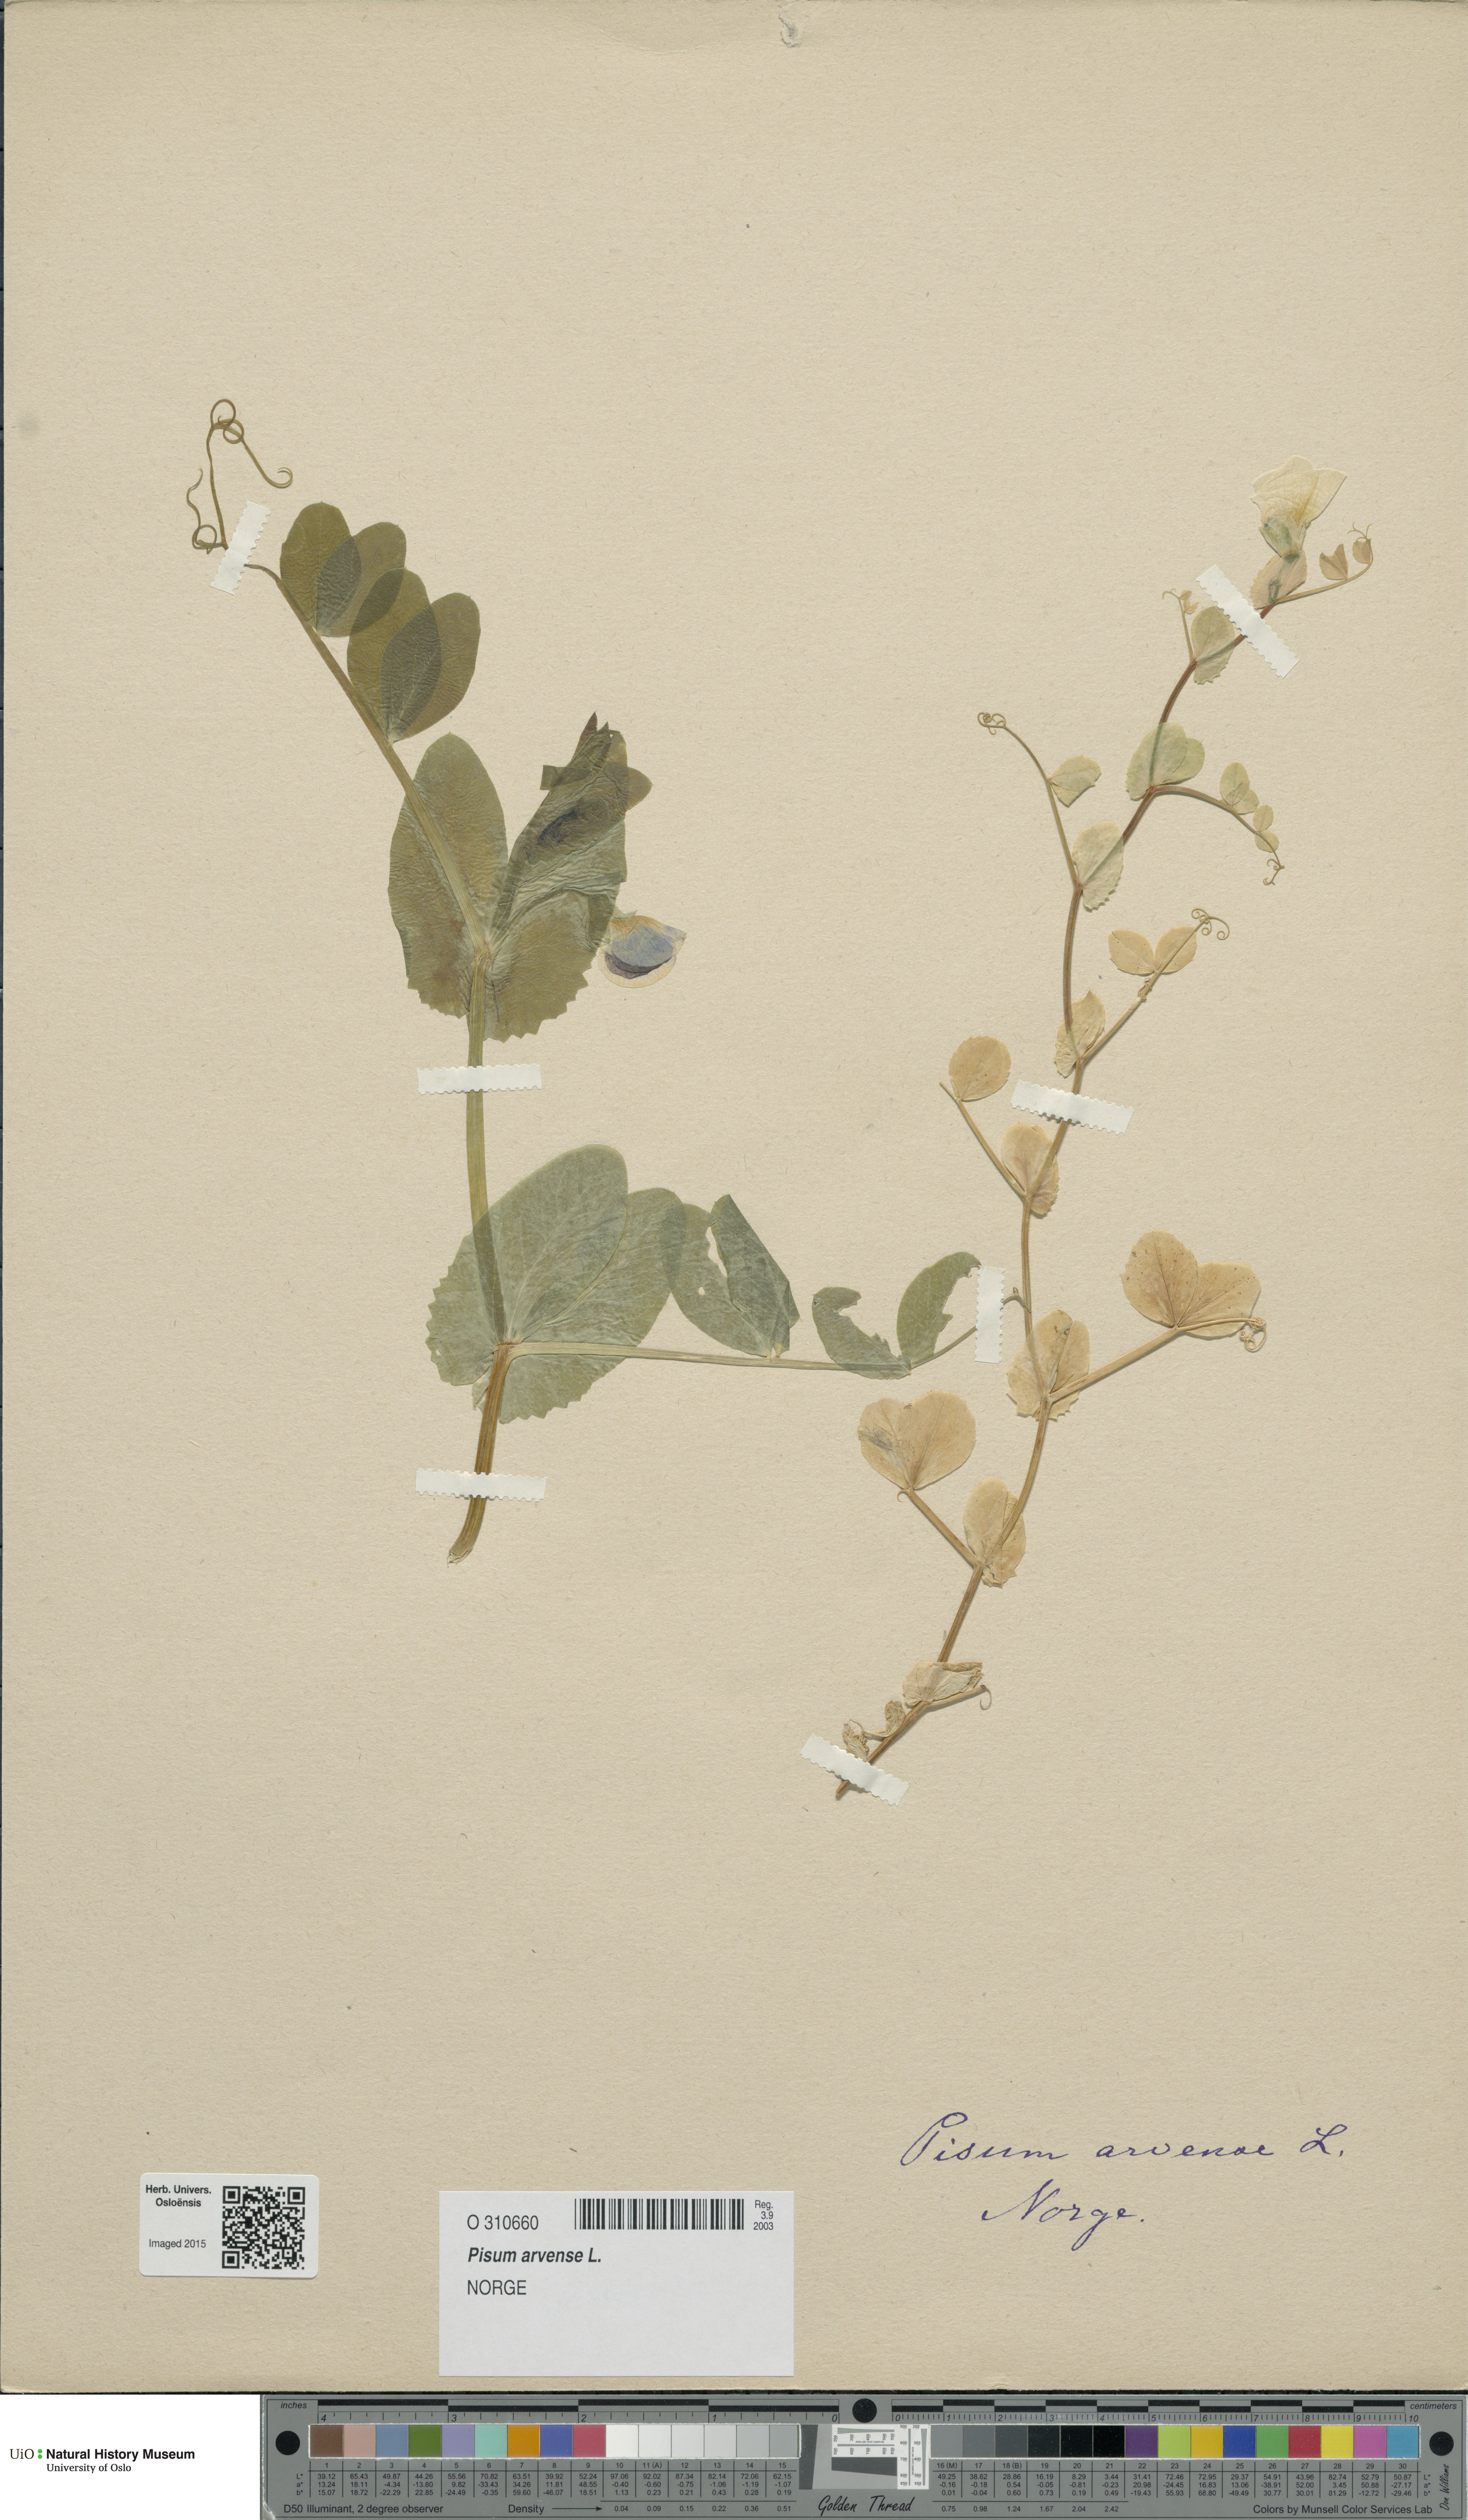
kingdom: Plantae
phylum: Tracheophyta
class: Magnoliopsida
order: Fabales
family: Fabaceae
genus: Lathyrus
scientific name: Lathyrus oleraceus
